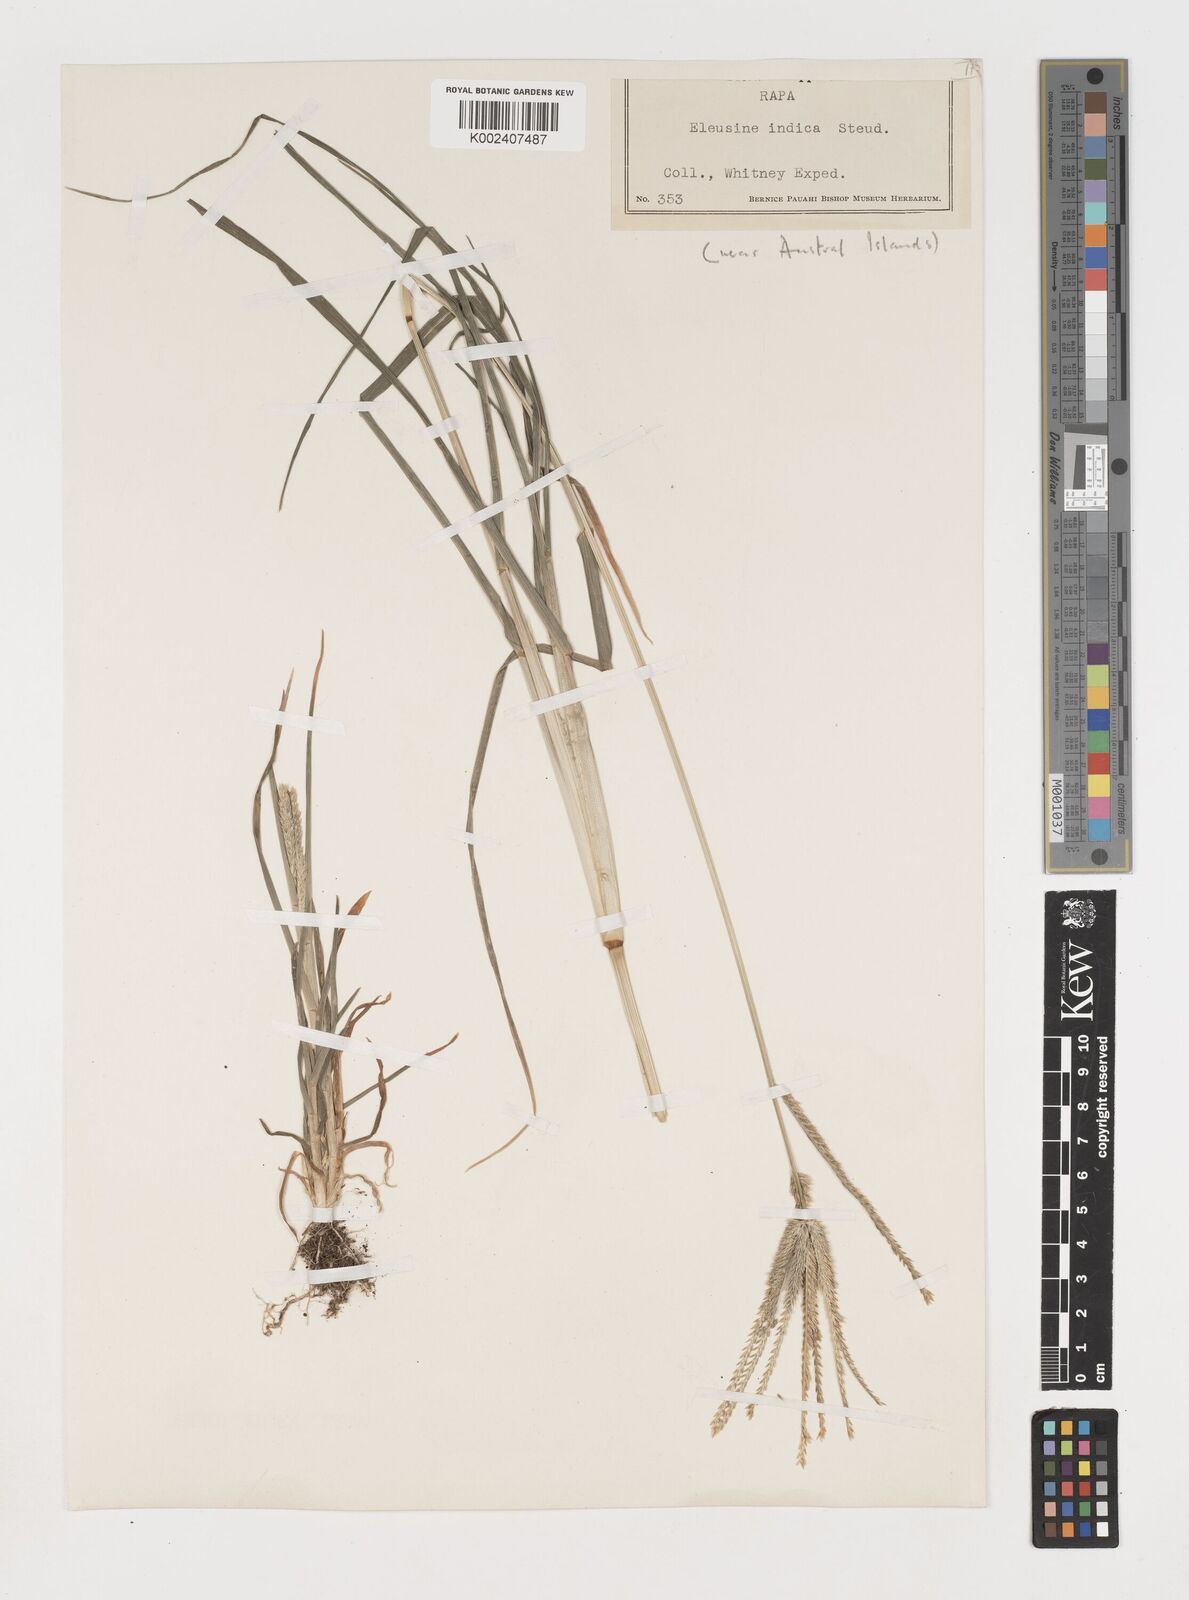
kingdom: Plantae
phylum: Tracheophyta
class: Liliopsida
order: Poales
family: Poaceae
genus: Eleusine
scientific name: Eleusine indica
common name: Yard-grass
